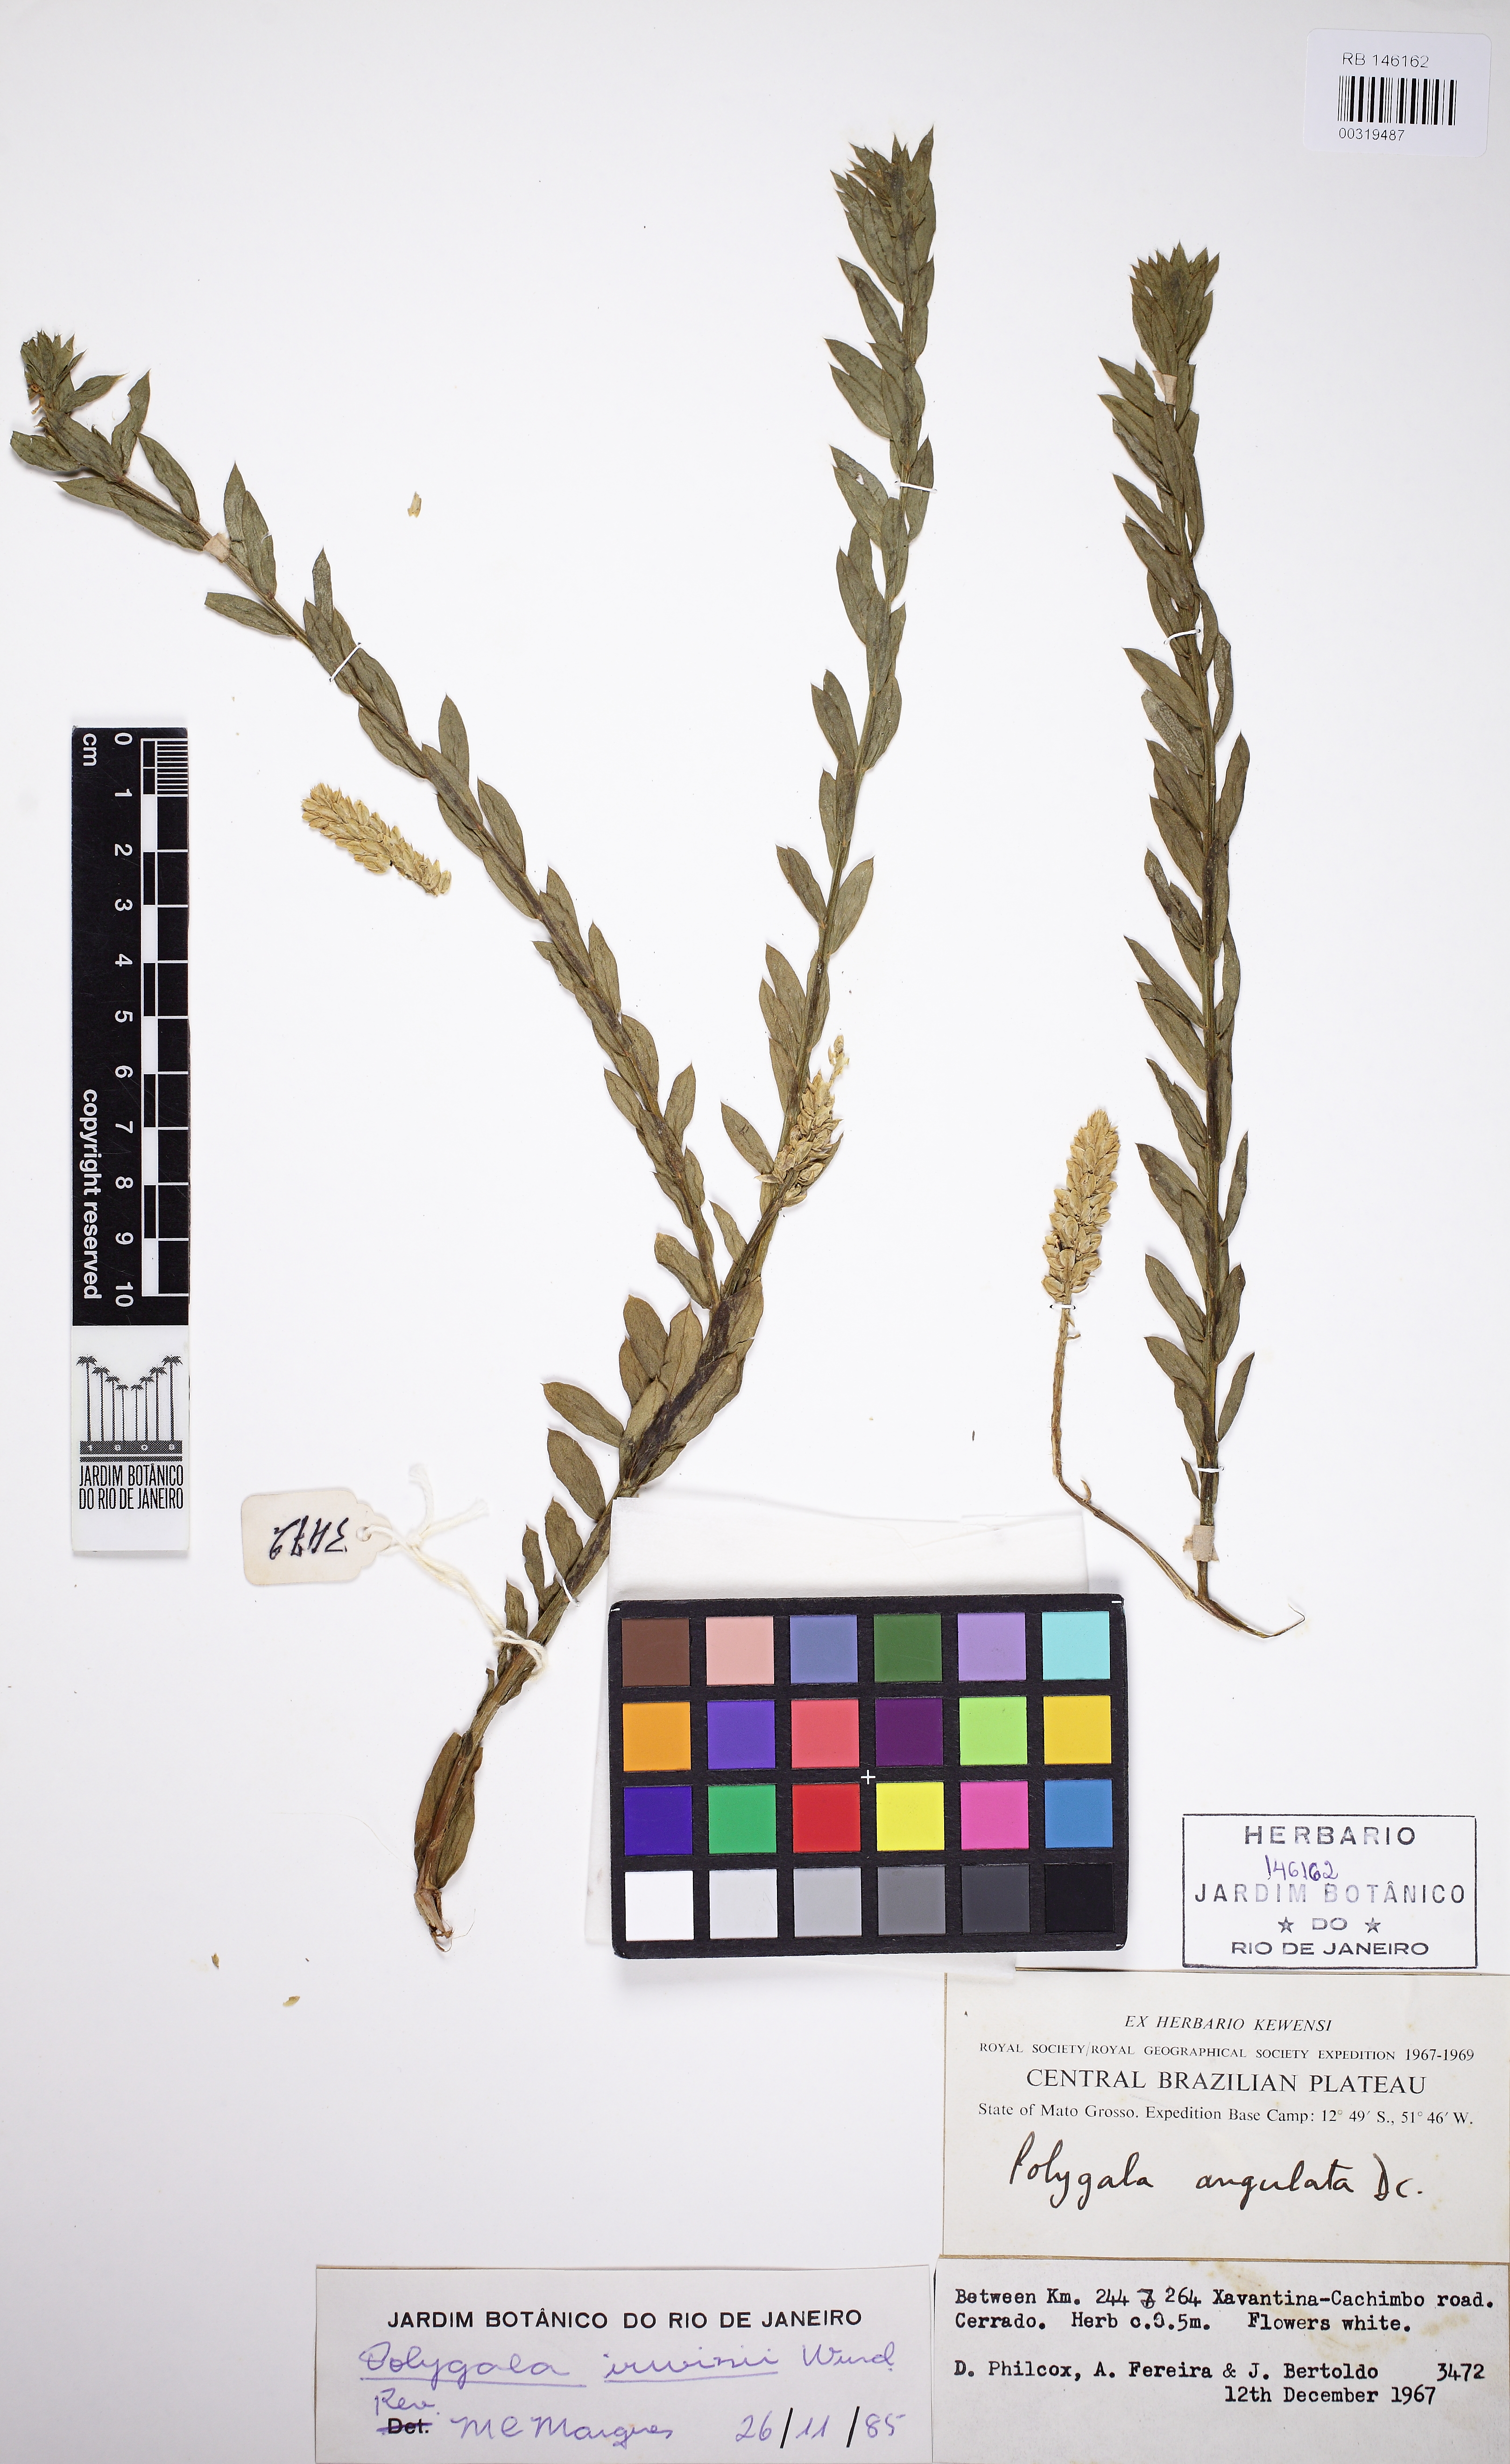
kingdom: Plantae
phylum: Tracheophyta
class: Magnoliopsida
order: Fabales
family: Polygalaceae
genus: Polygala
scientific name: Polygala irwinii
